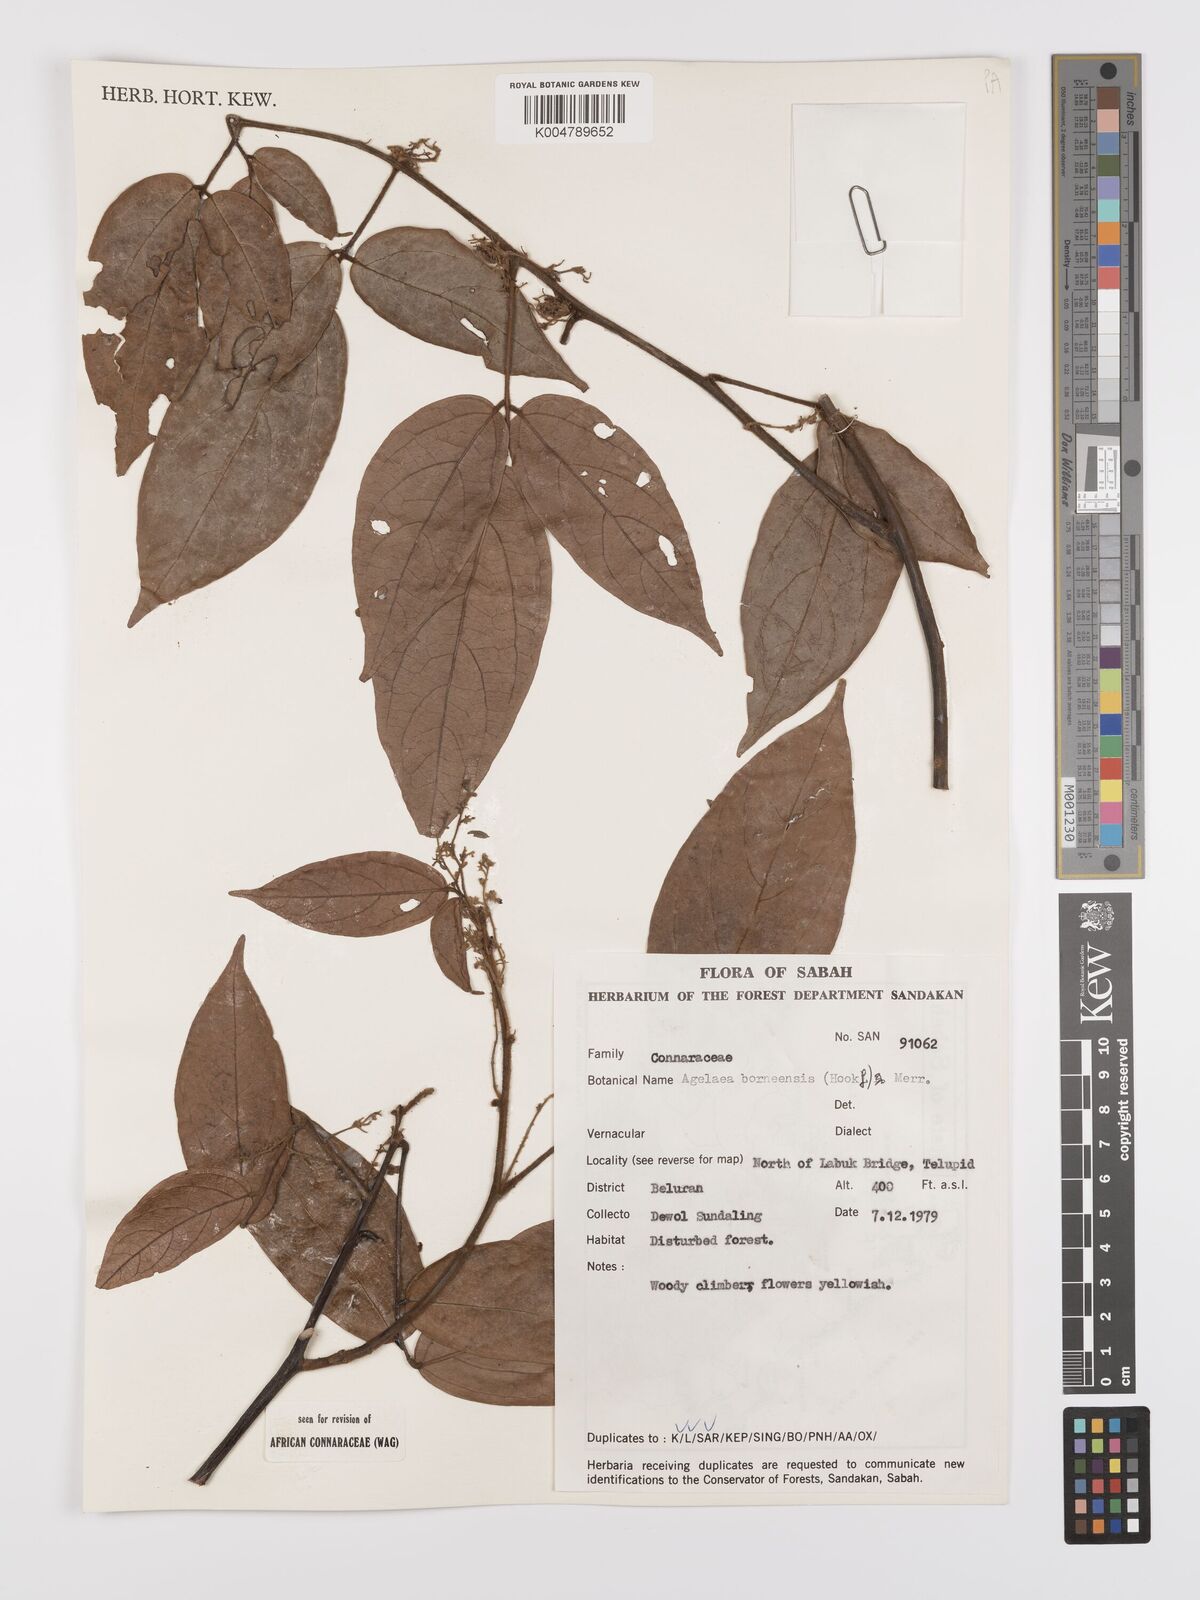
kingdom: Plantae
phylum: Tracheophyta
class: Magnoliopsida
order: Oxalidales
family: Connaraceae
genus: Agelaea
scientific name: Agelaea borneensis
